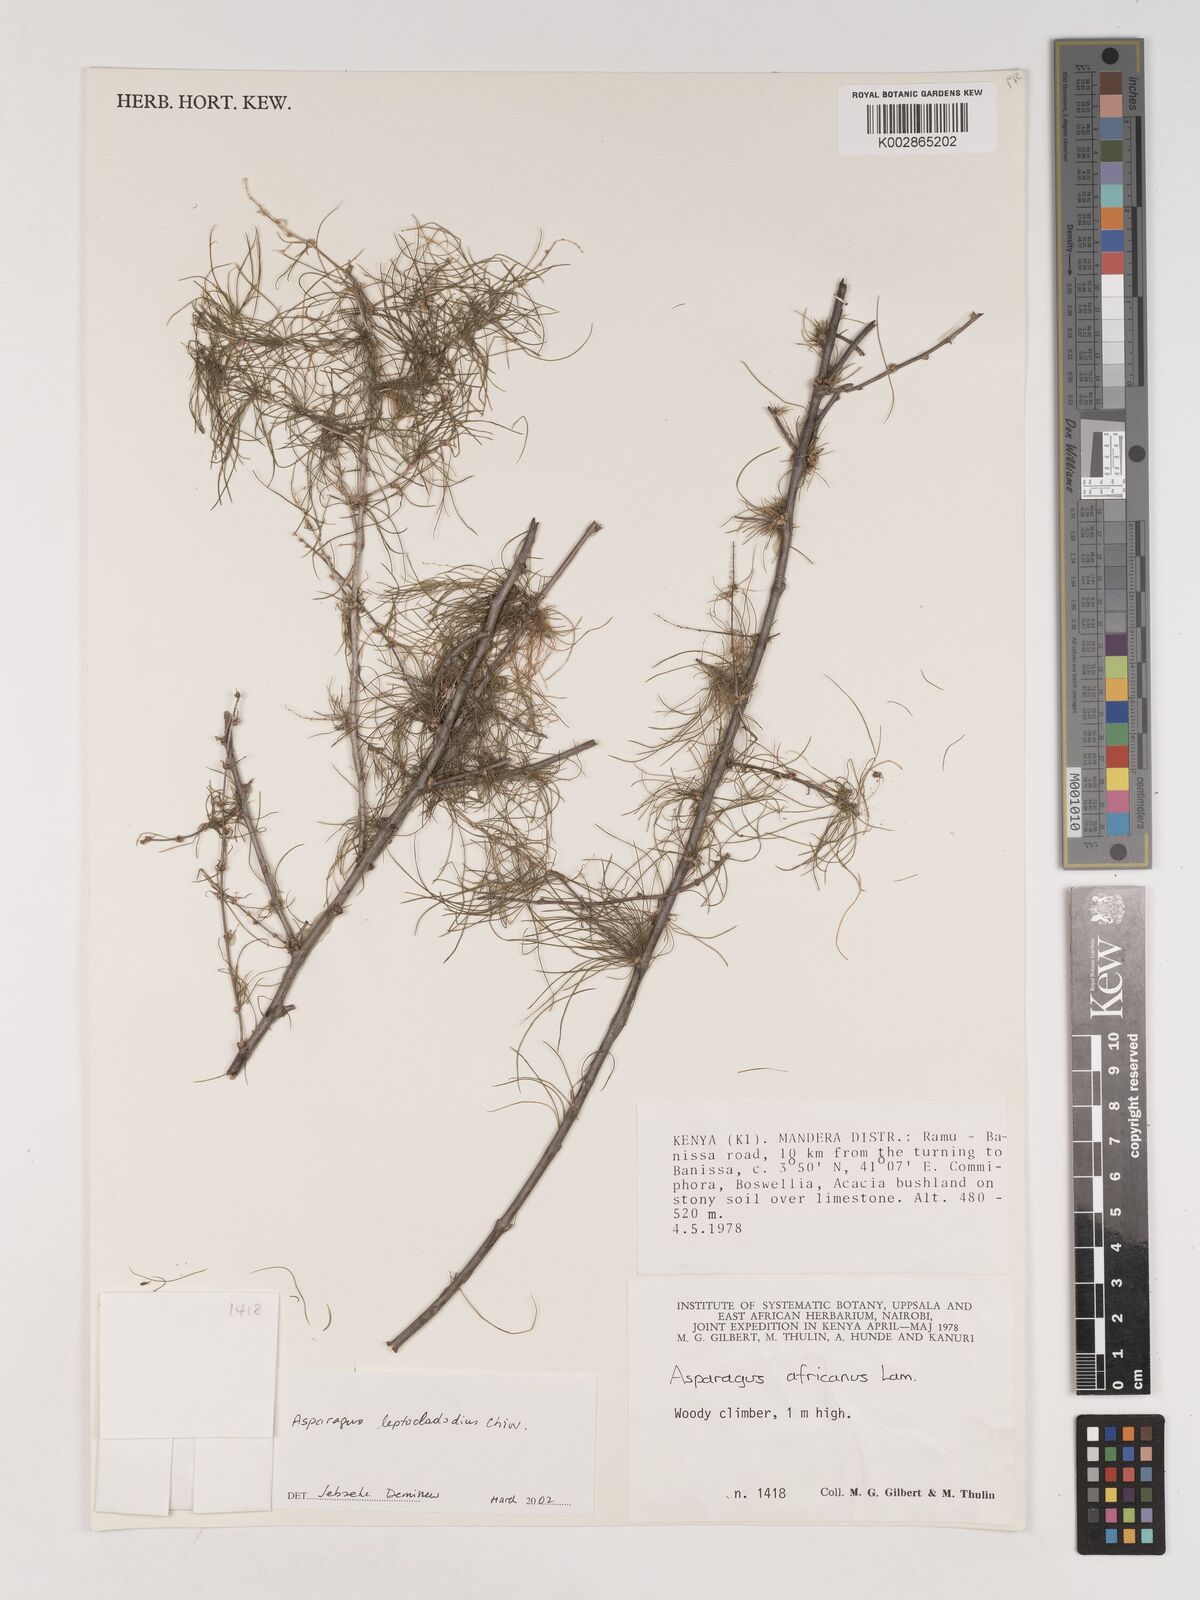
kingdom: Plantae
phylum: Tracheophyta
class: Liliopsida
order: Asparagales
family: Asparagaceae
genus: Asparagus
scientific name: Asparagus leptocladodius
